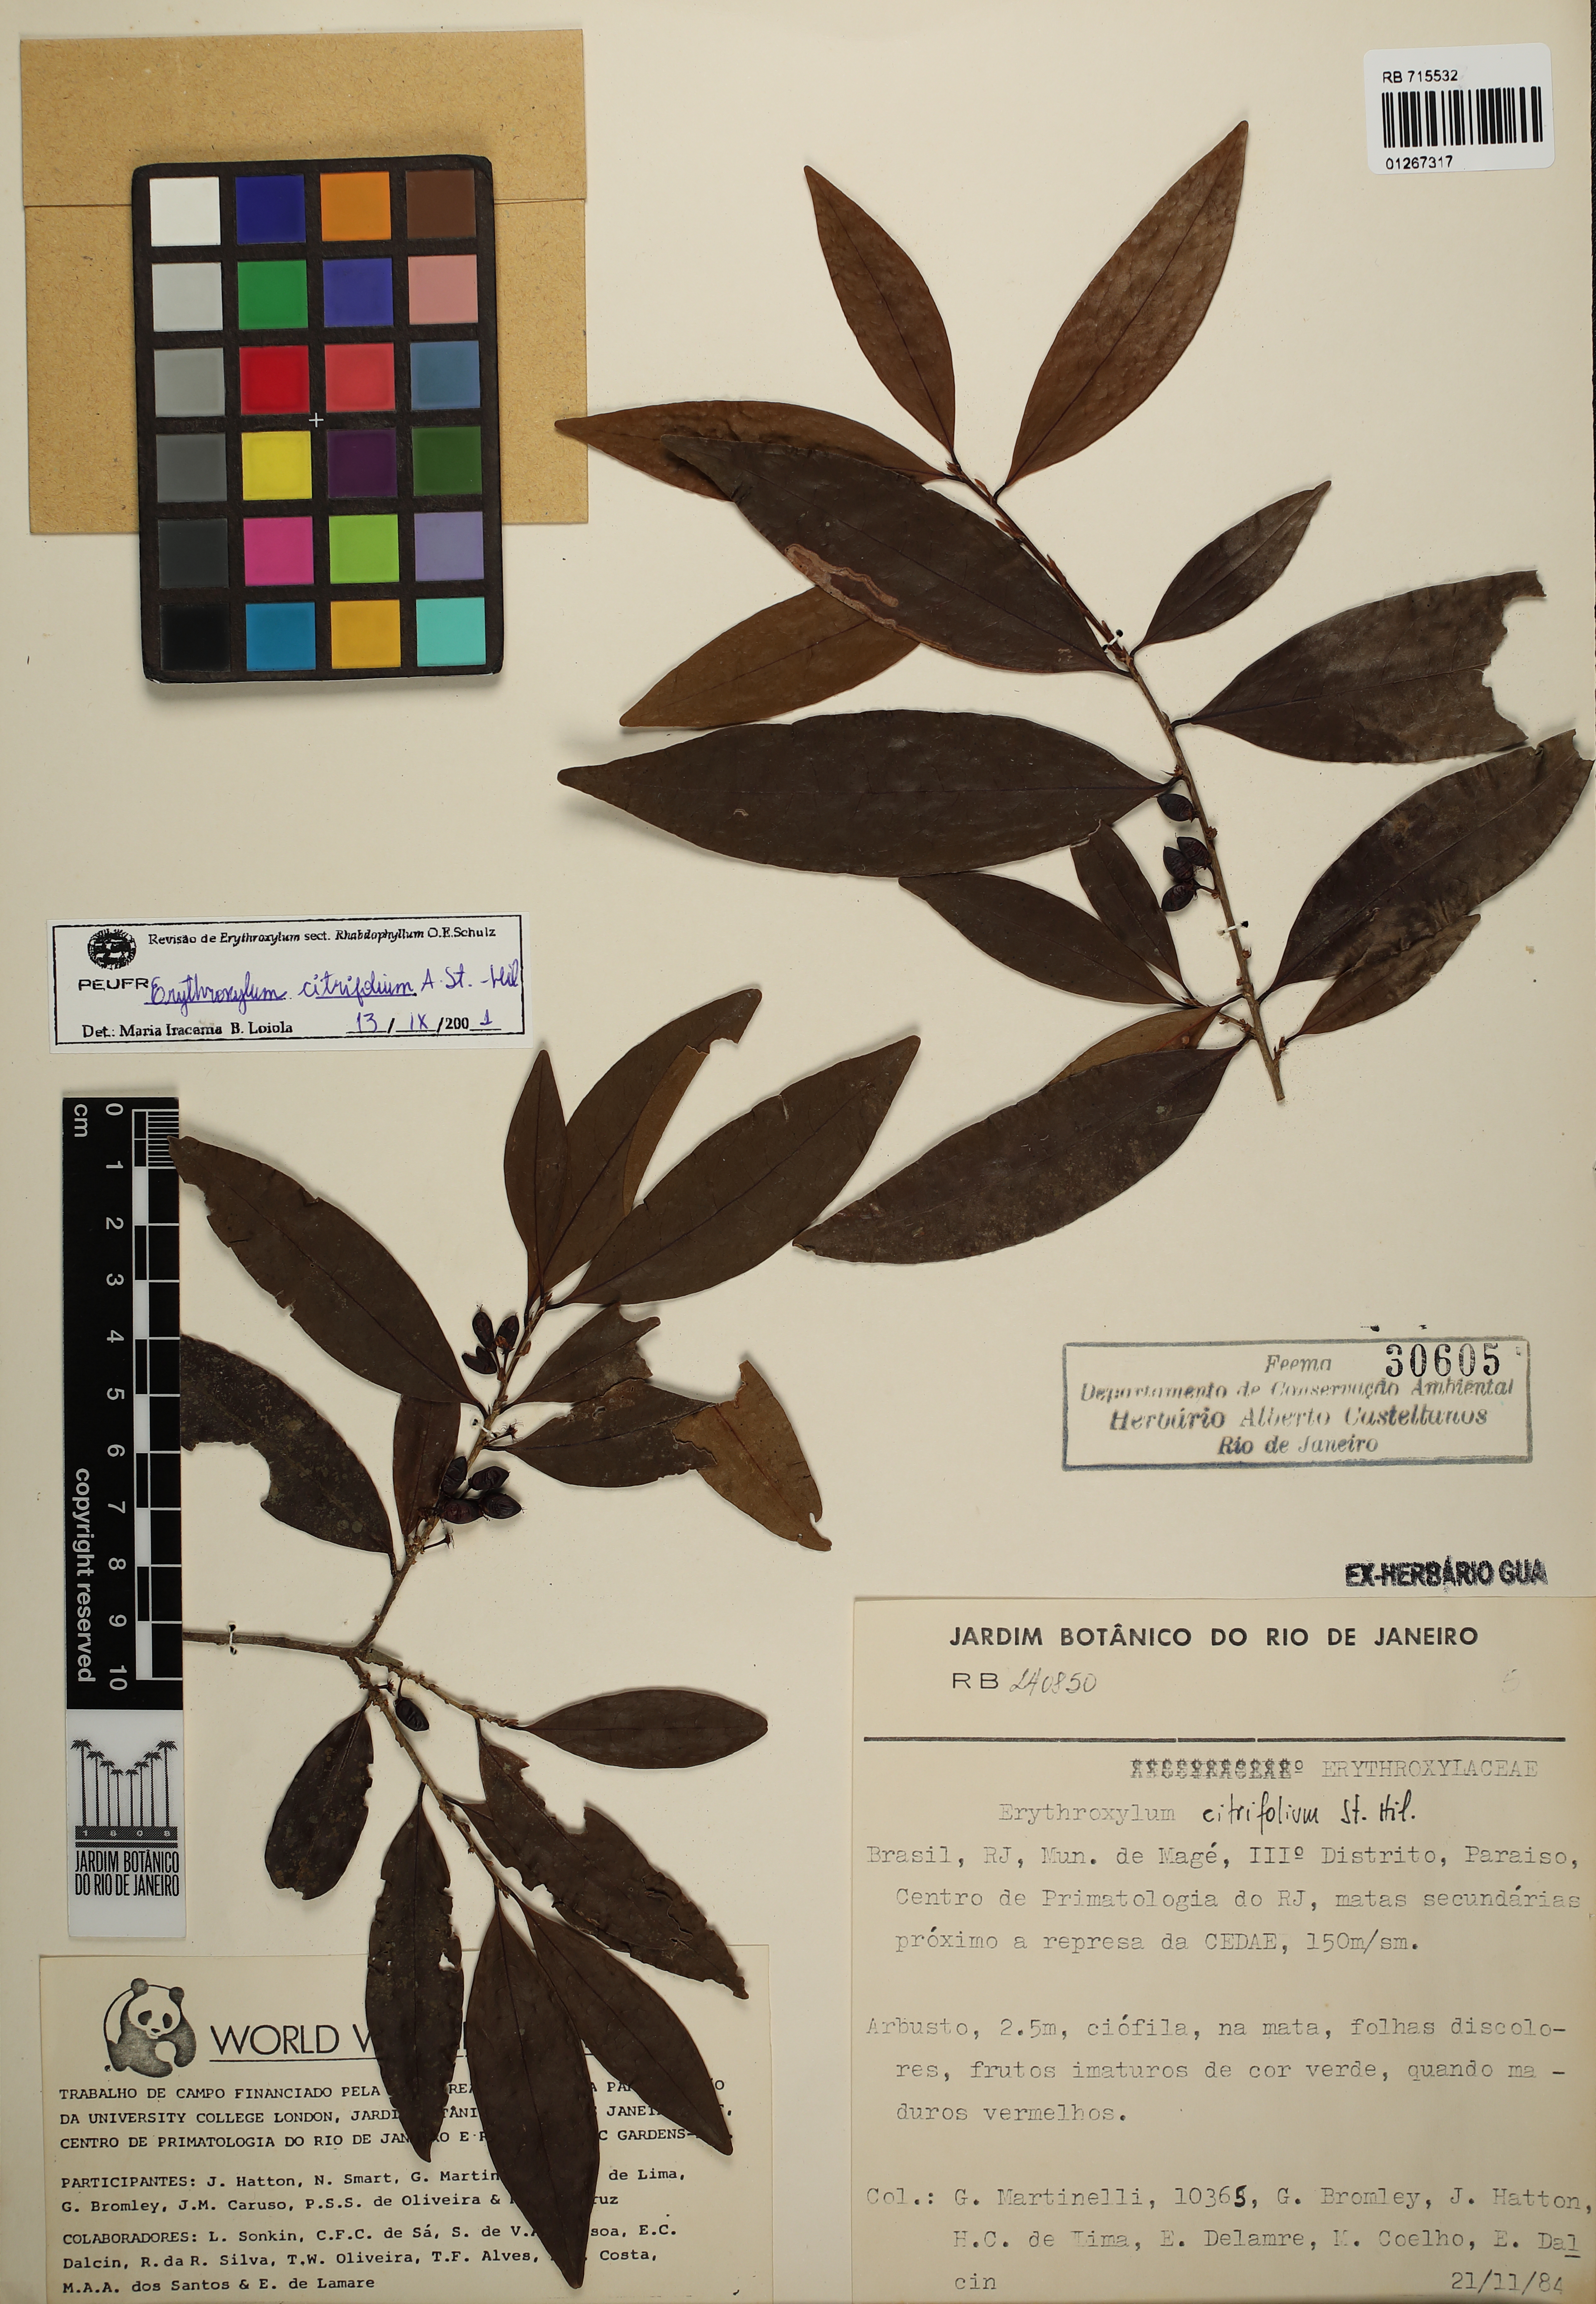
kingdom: Plantae
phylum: Tracheophyta
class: Magnoliopsida
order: Malpighiales
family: Erythroxylaceae
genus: Erythroxylum
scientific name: Erythroxylum citrifolium
